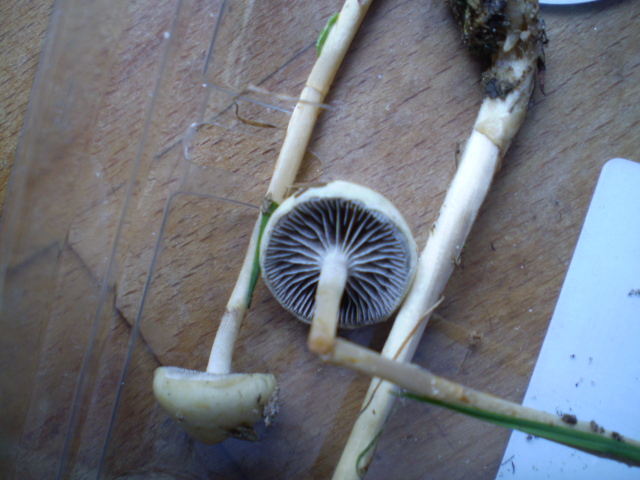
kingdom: Fungi
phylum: Basidiomycota
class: Agaricomycetes
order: Agaricales
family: Strophariaceae
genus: Protostropharia
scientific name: Protostropharia semiglobata
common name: halvkugleformet bredblad
